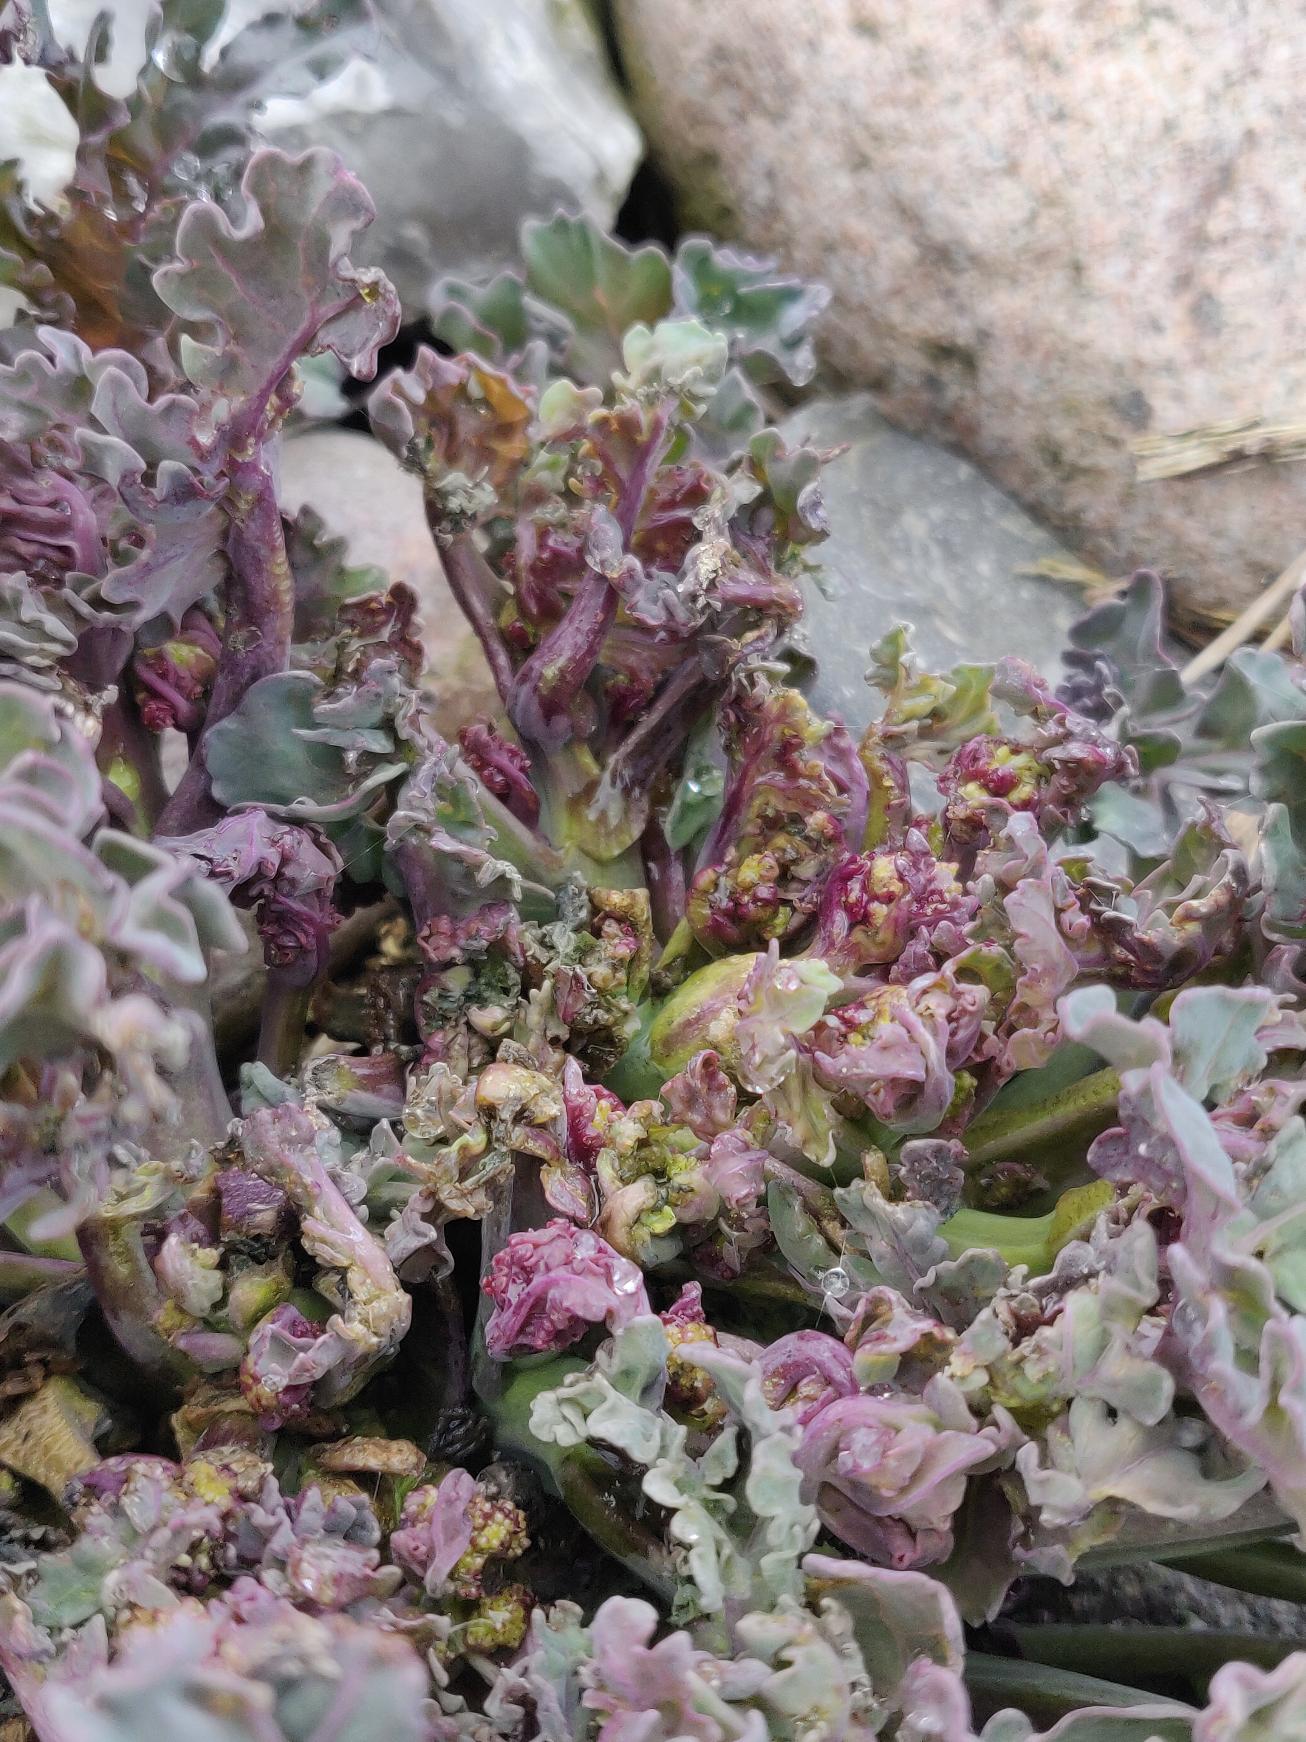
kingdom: Plantae
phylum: Tracheophyta
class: Magnoliopsida
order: Brassicales
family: Brassicaceae
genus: Crambe
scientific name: Crambe maritima
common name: Strandkål
